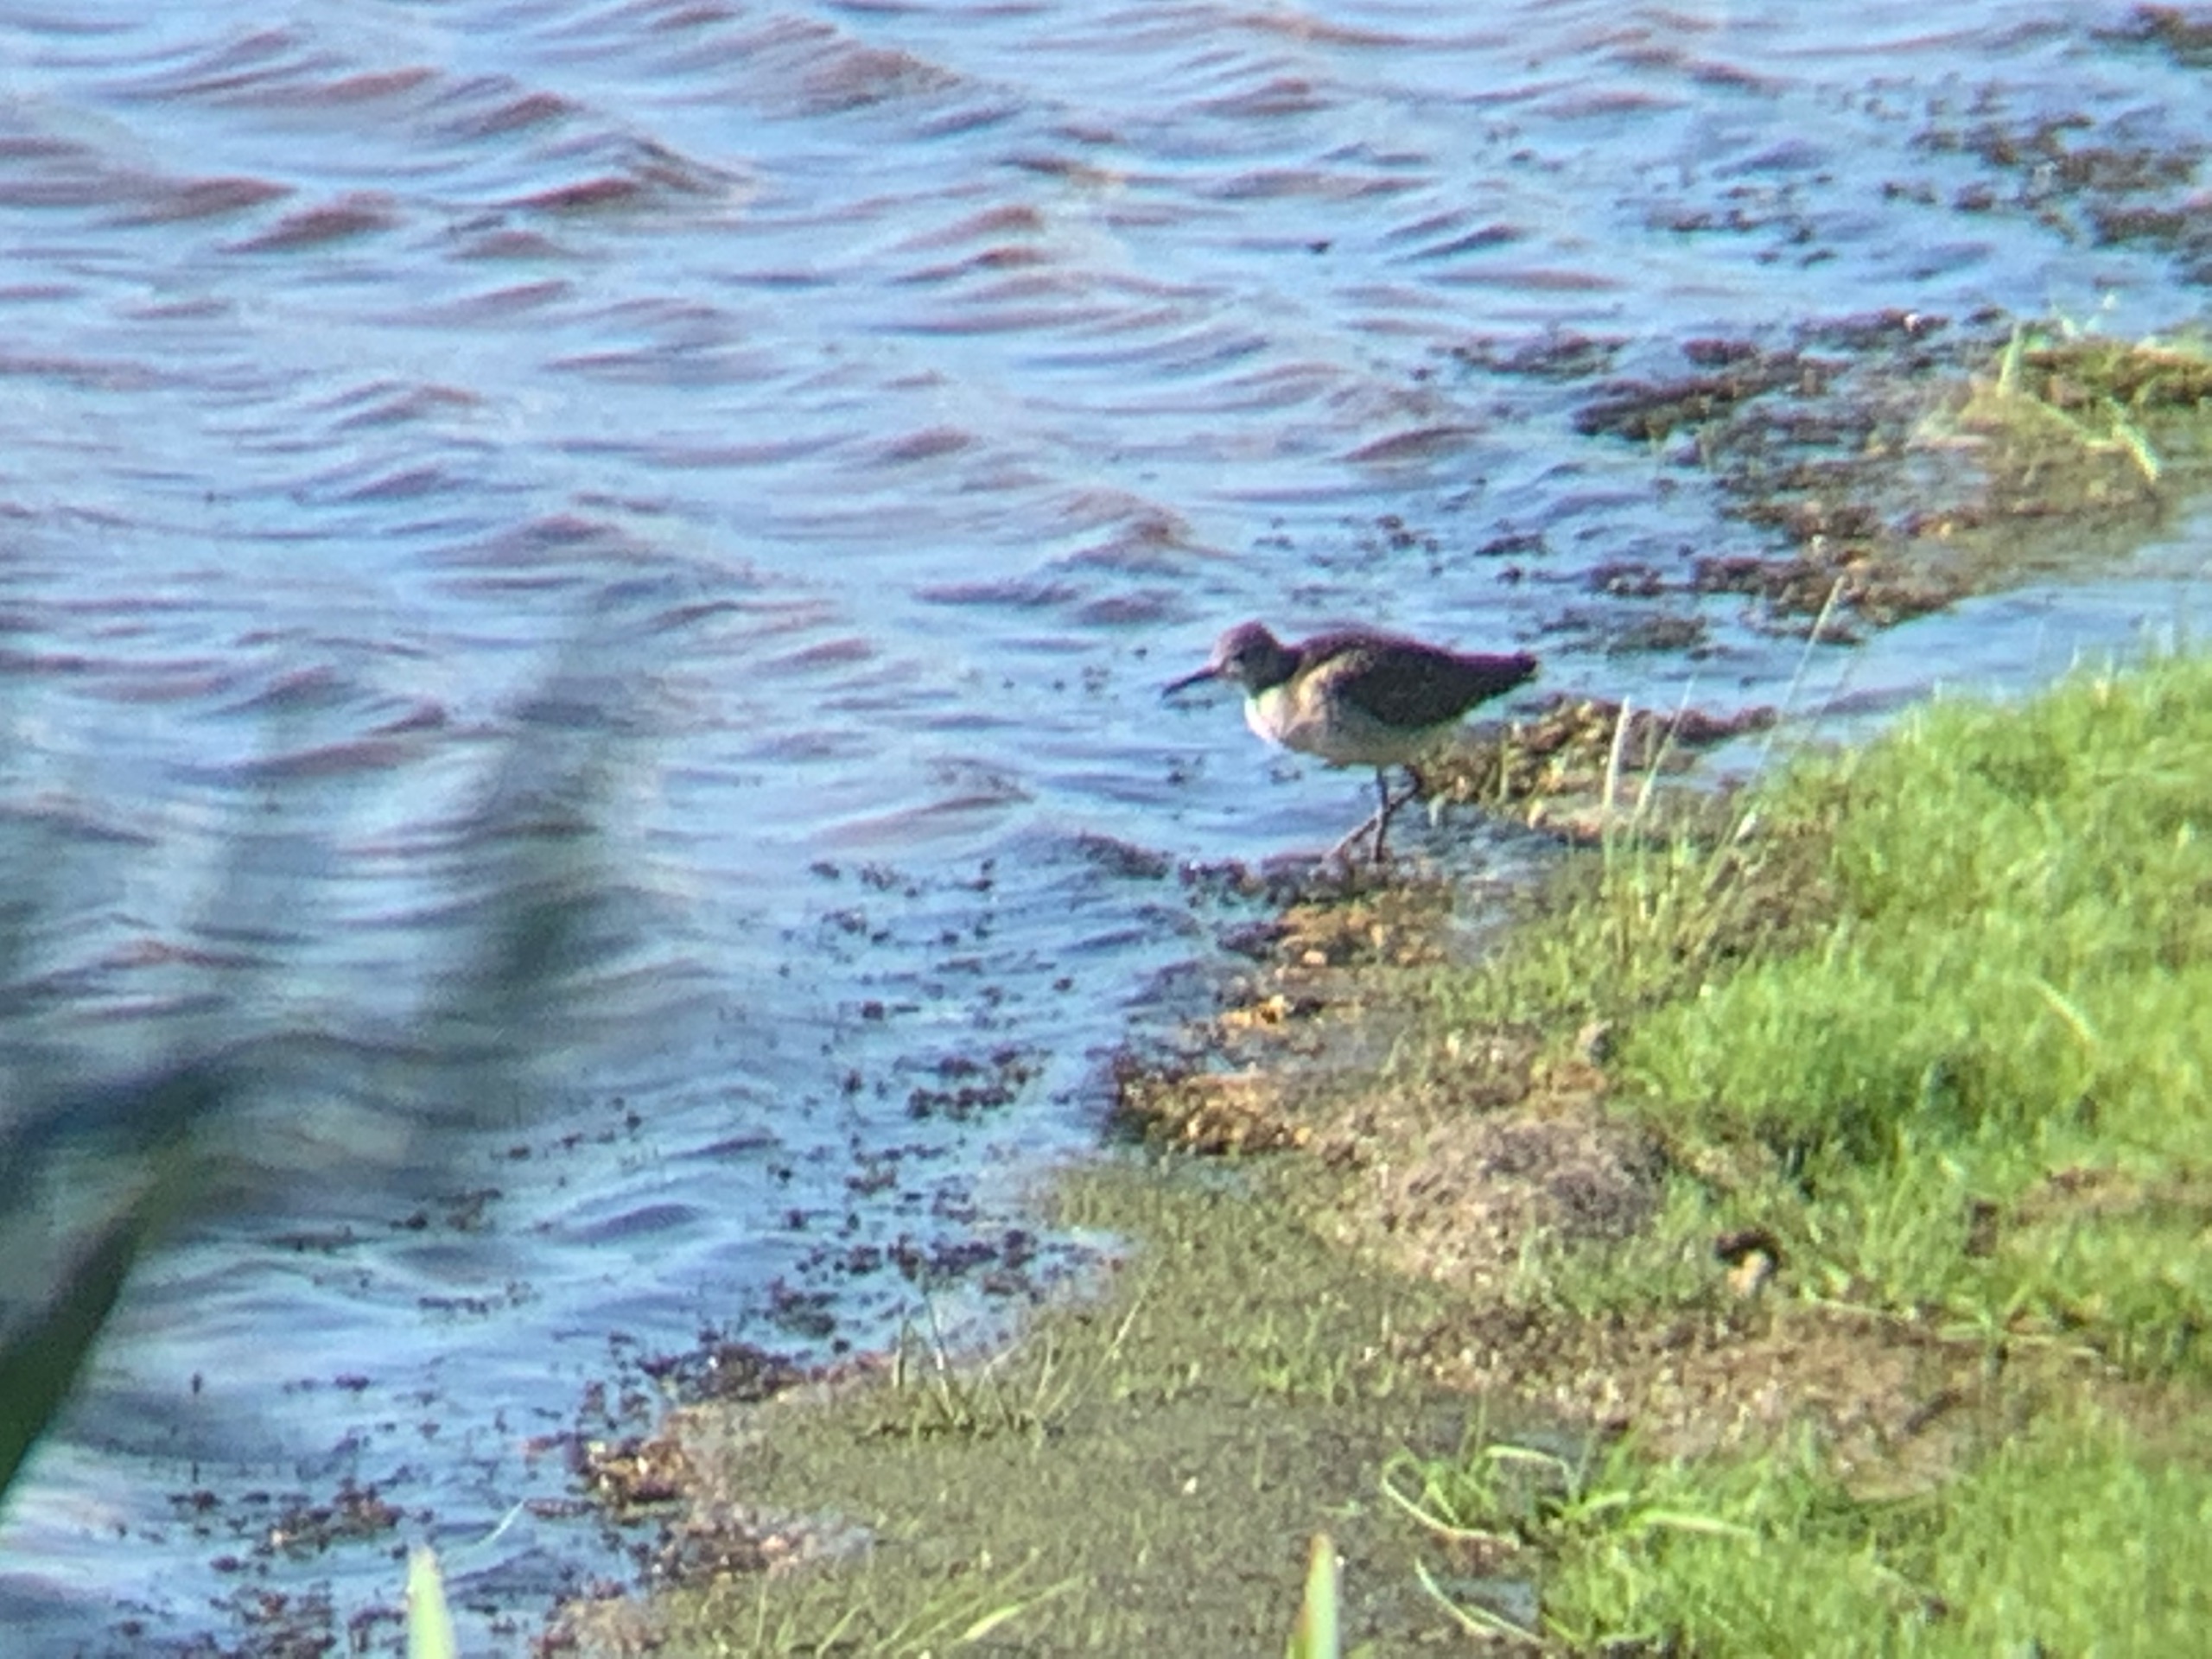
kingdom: Animalia
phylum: Chordata
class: Aves
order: Charadriiformes
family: Scolopacidae
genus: Tringa
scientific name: Tringa glareola
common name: Tinksmed
